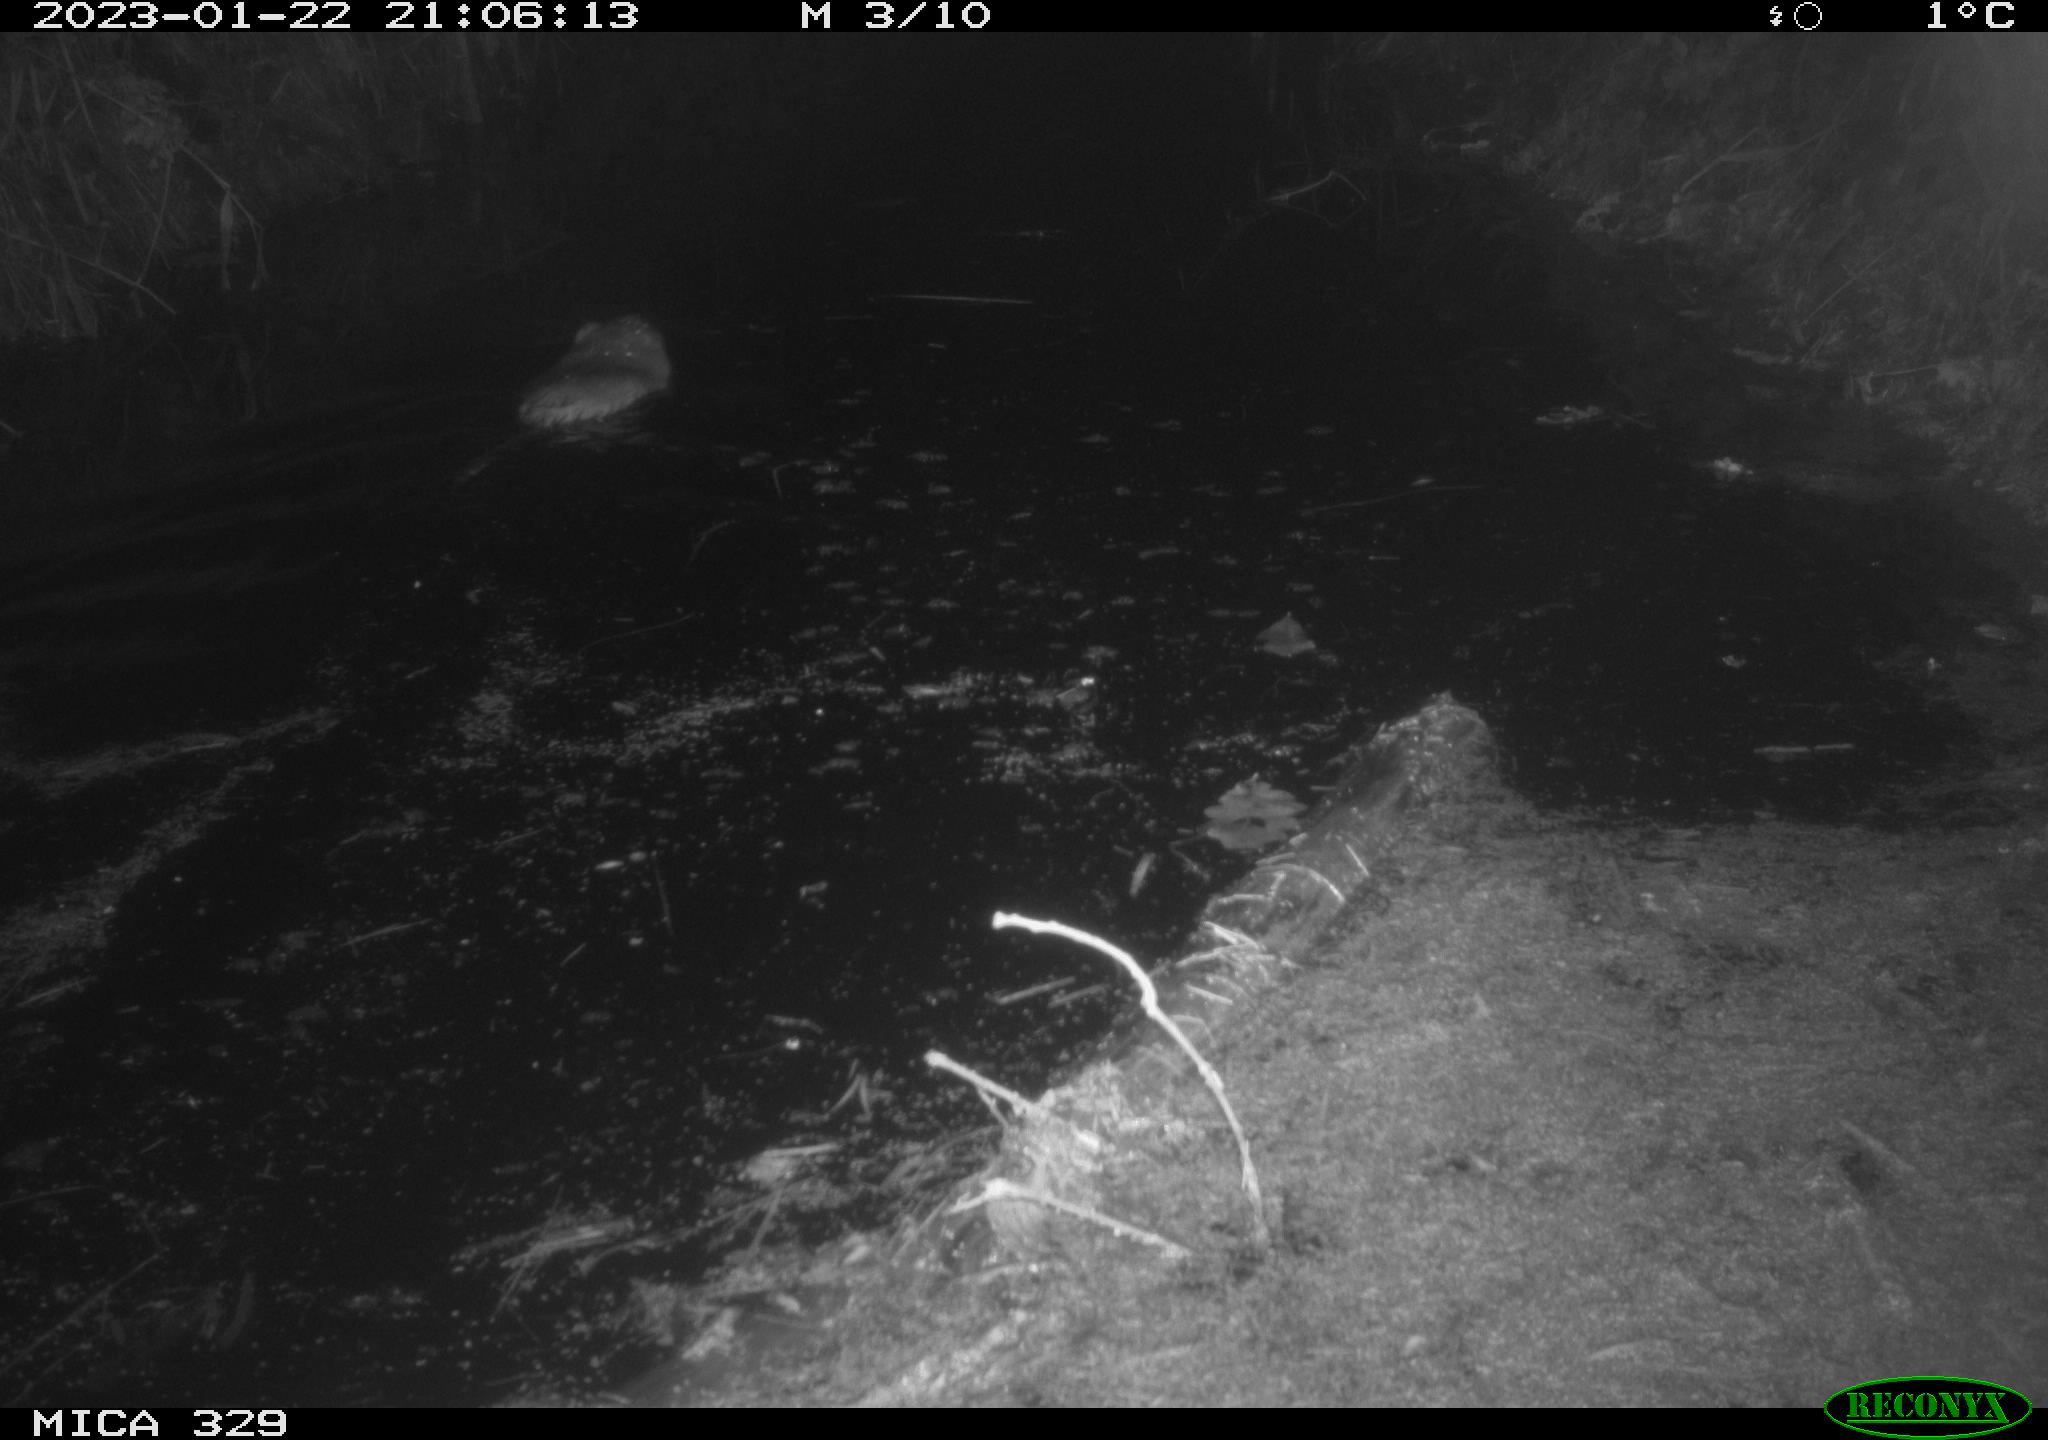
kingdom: Animalia
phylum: Chordata
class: Mammalia
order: Rodentia
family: Cricetidae
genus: Ondatra
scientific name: Ondatra zibethicus
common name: Muskrat
